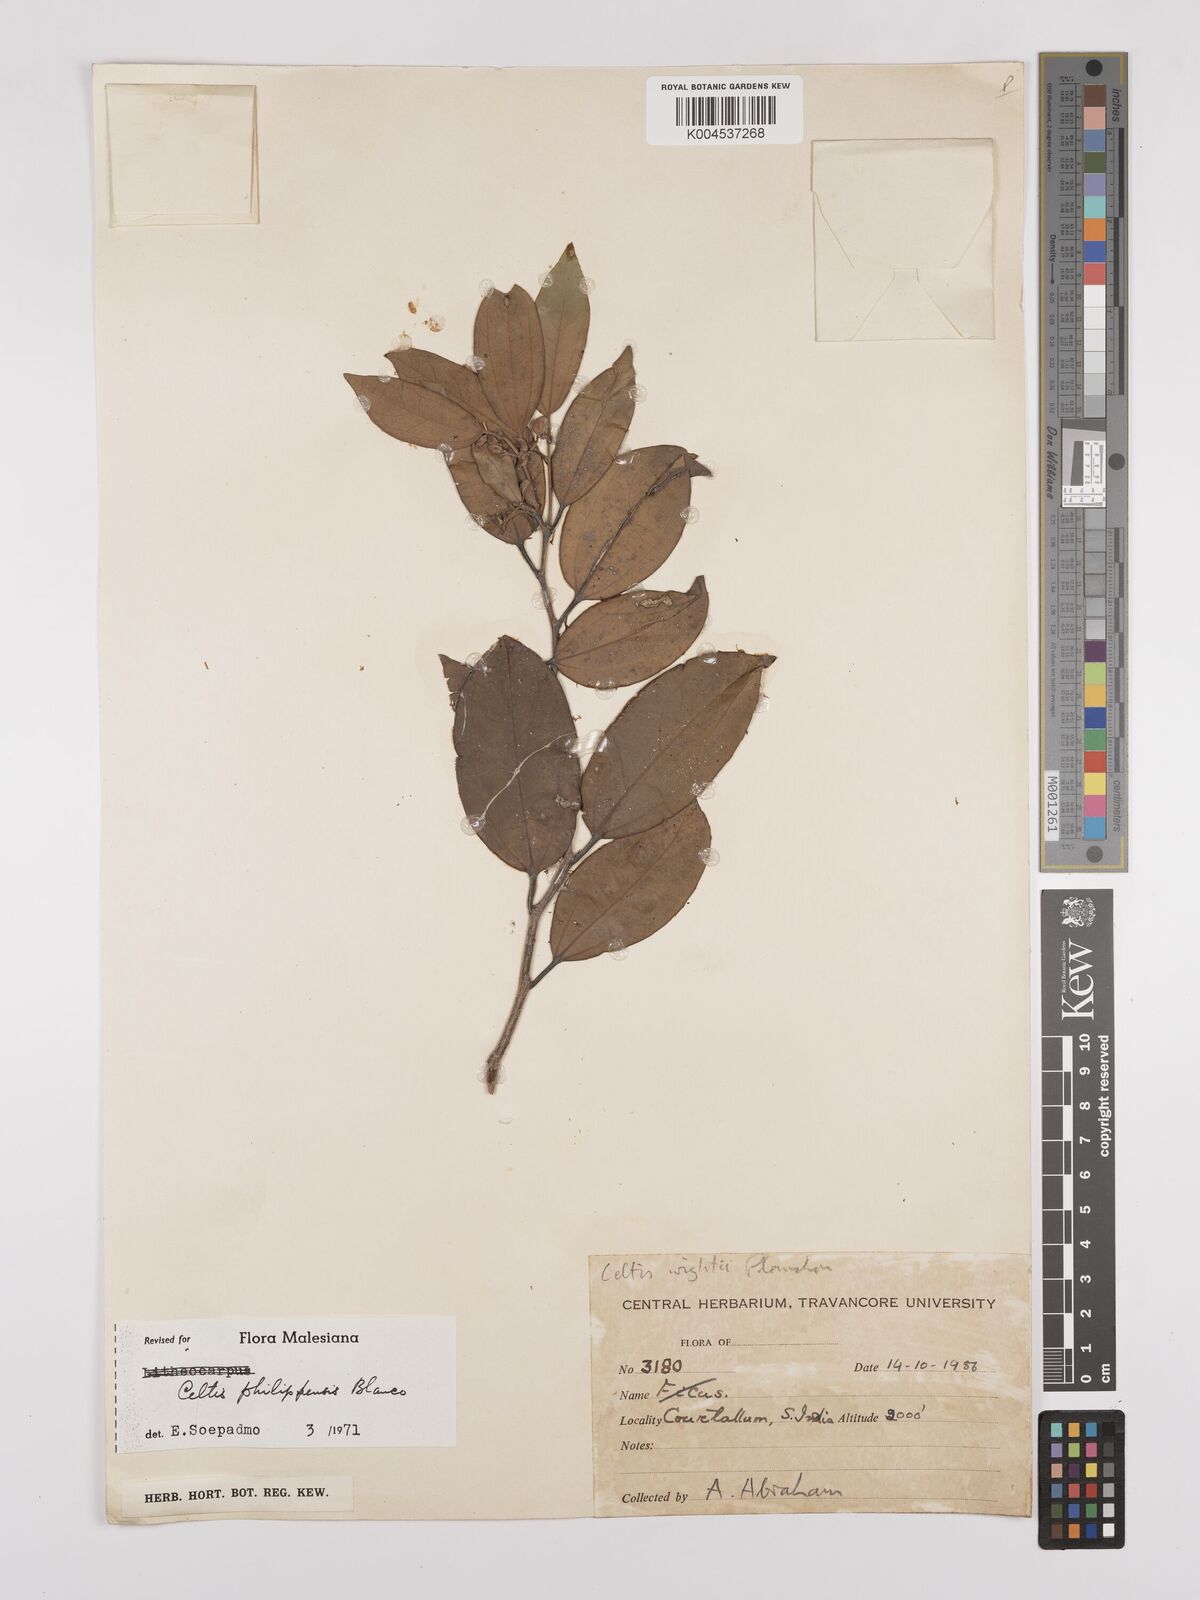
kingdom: Plantae
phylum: Tracheophyta
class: Magnoliopsida
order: Rosales
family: Cannabaceae
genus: Celtis
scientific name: Celtis philippensis
